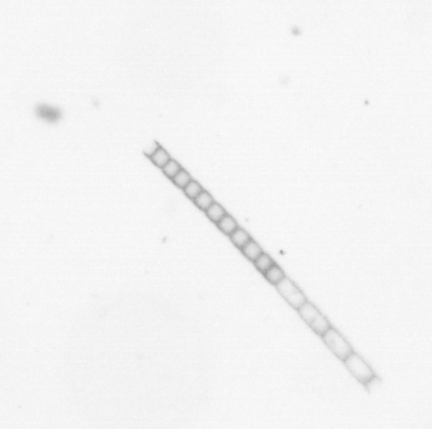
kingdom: Chromista
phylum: Ochrophyta
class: Bacillariophyceae
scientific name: Bacillariophyceae
